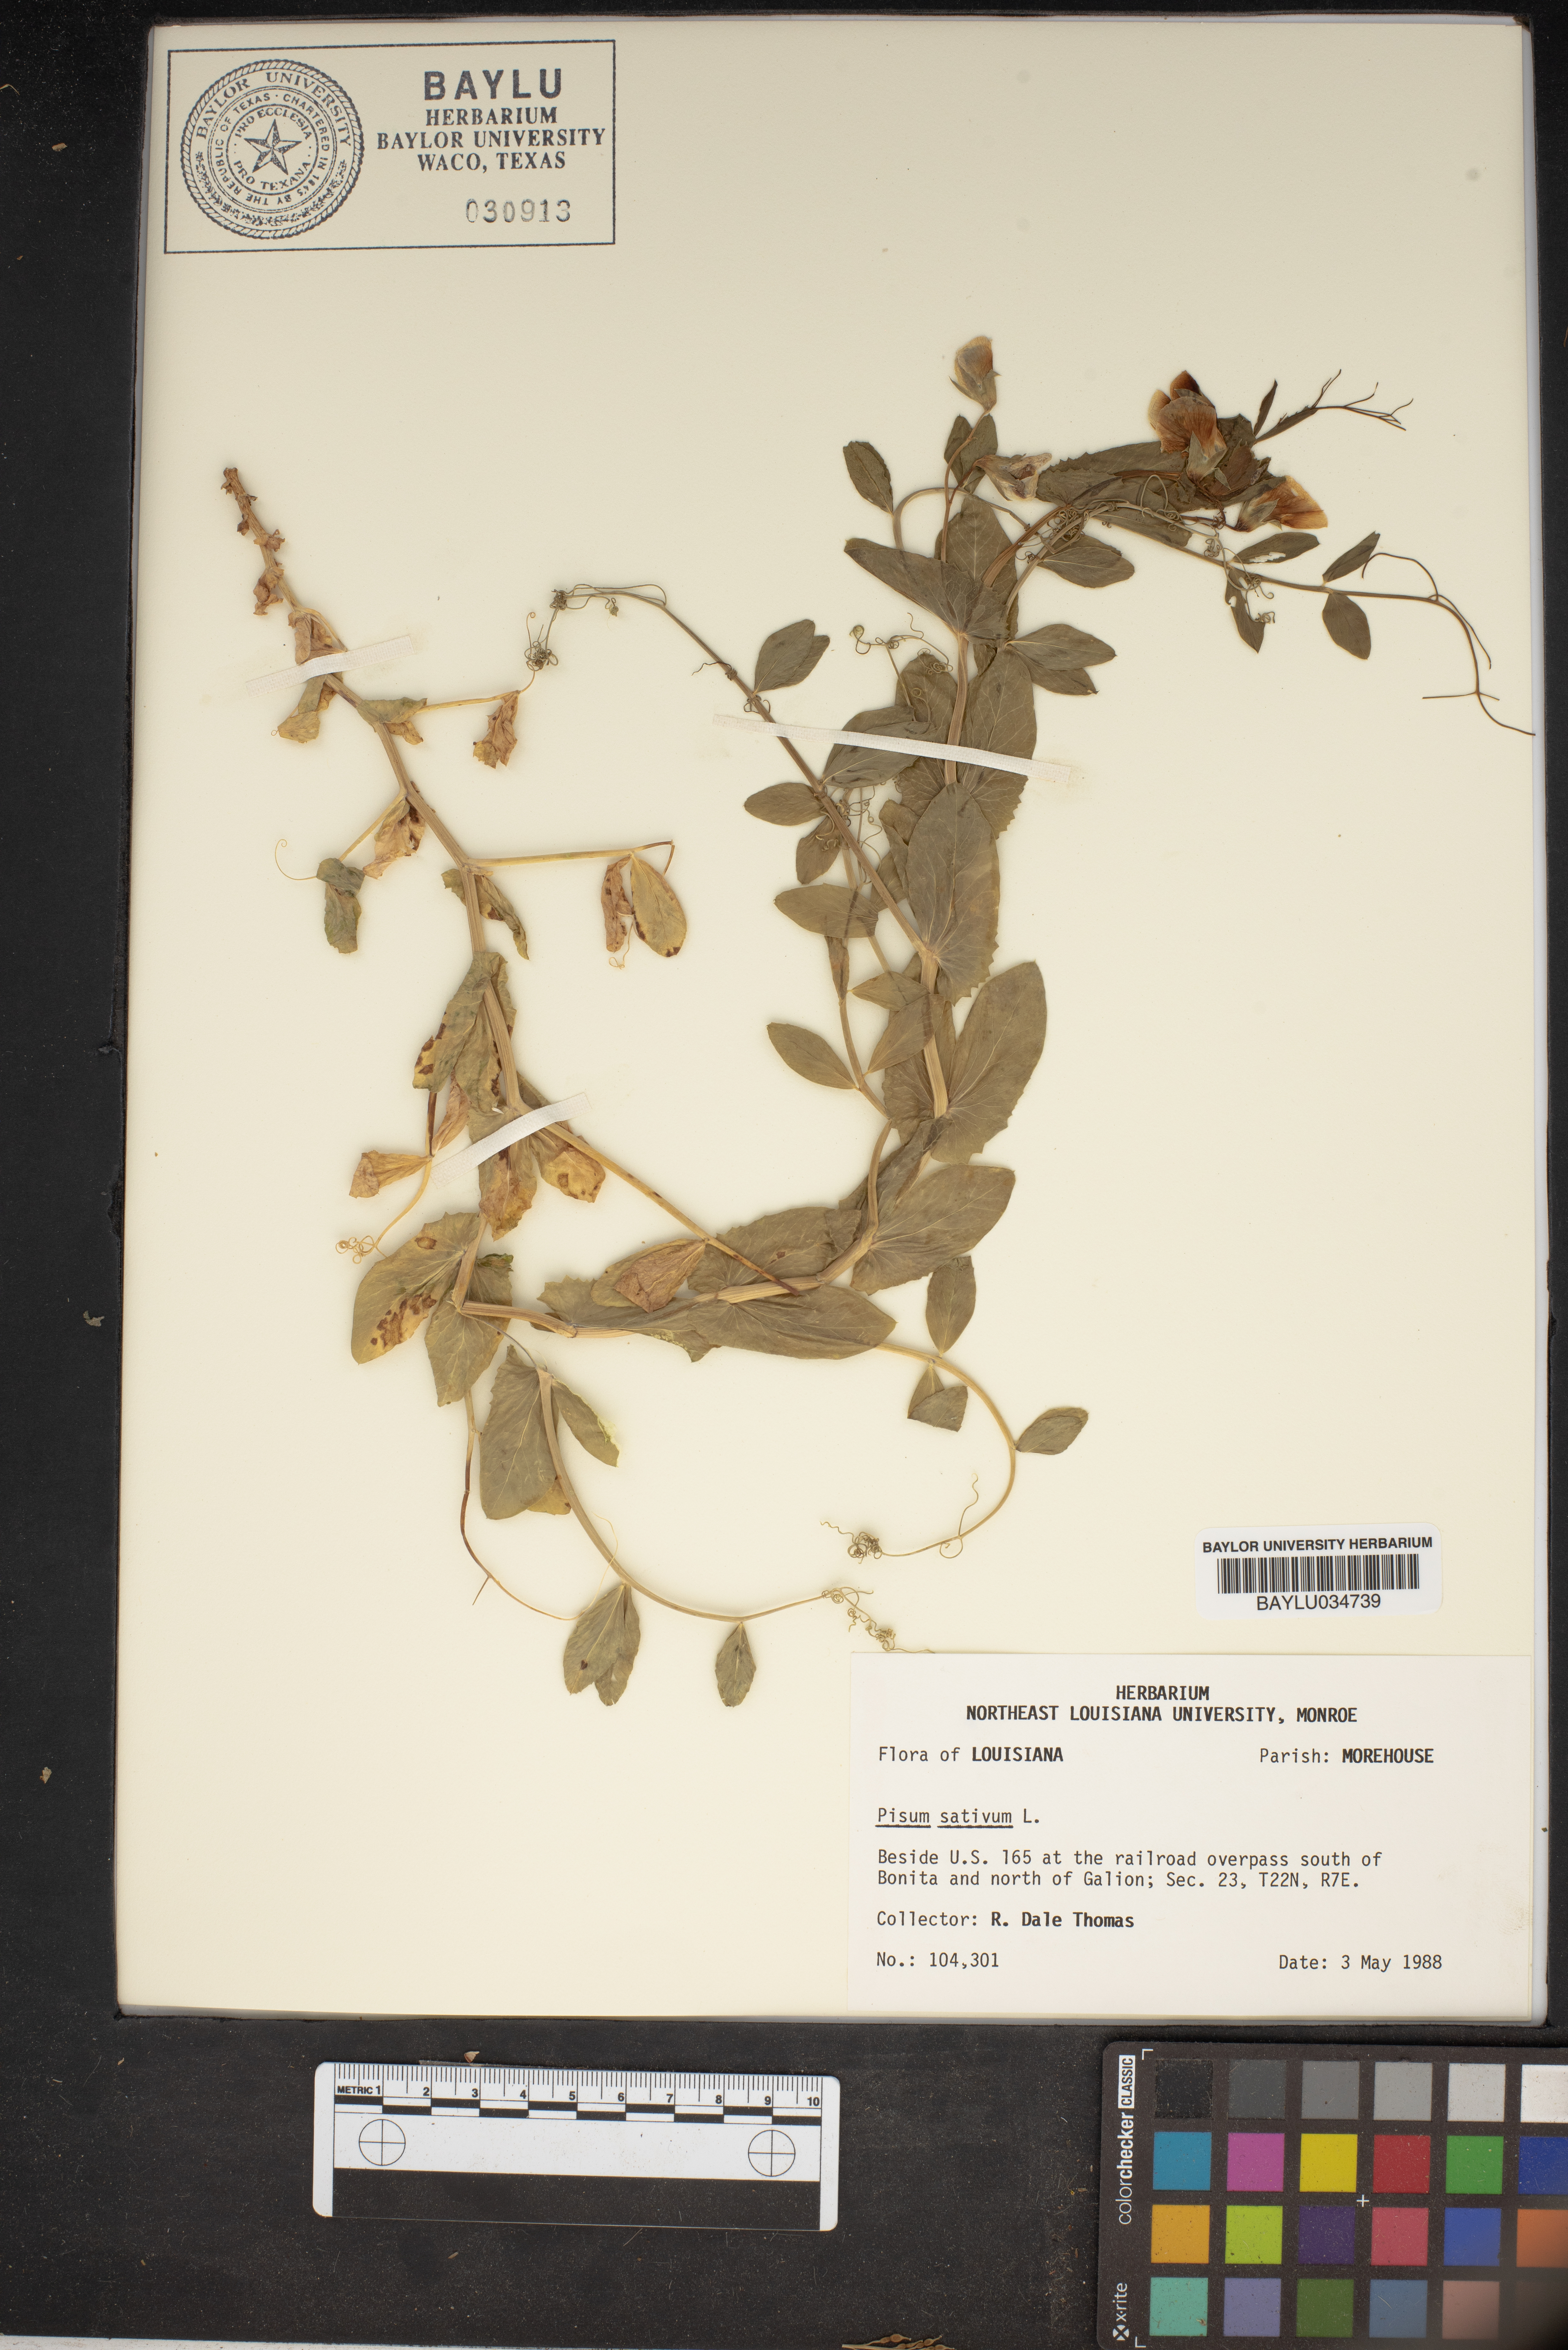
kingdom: Plantae
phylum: Tracheophyta
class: Magnoliopsida
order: Fabales
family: Fabaceae
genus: Lathyrus
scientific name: Lathyrus oleraceus
